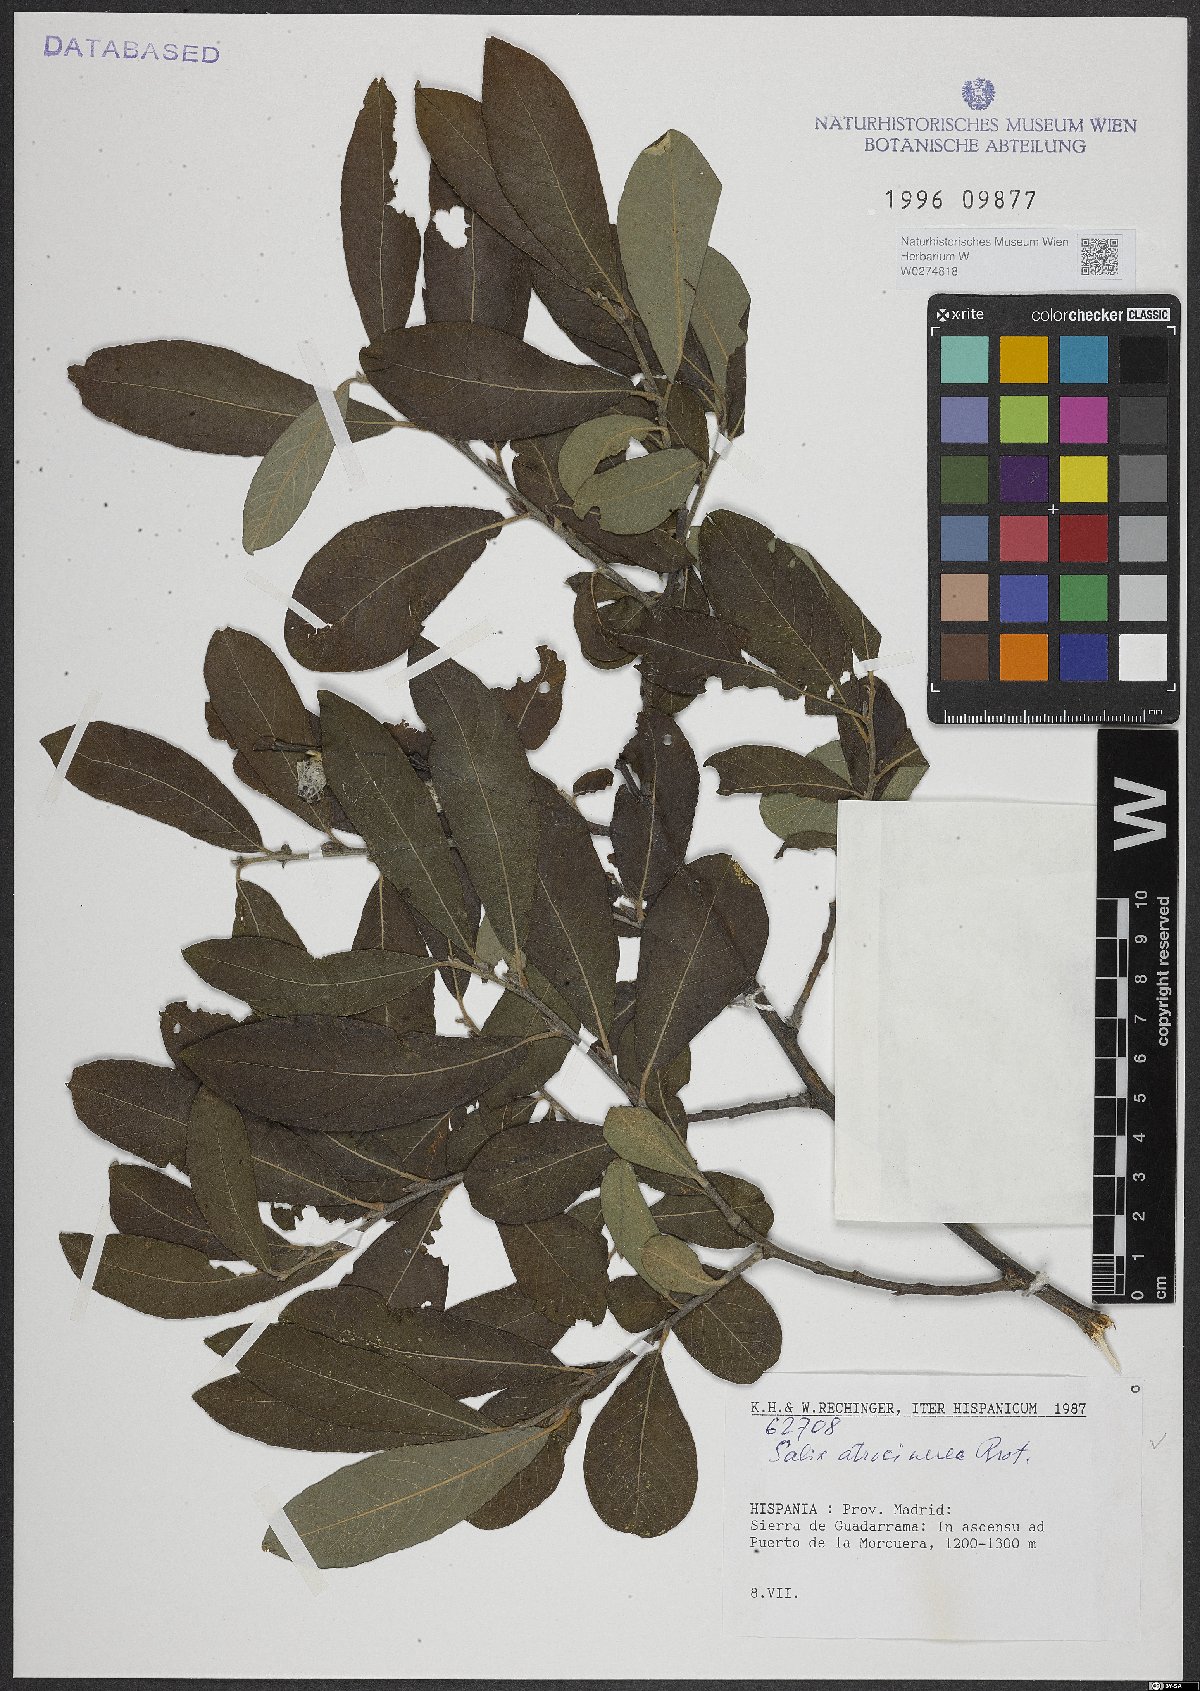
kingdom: Plantae
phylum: Tracheophyta
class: Magnoliopsida
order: Malpighiales
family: Salicaceae
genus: Salix
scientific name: Salix atrocinerea
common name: Rusty willow
